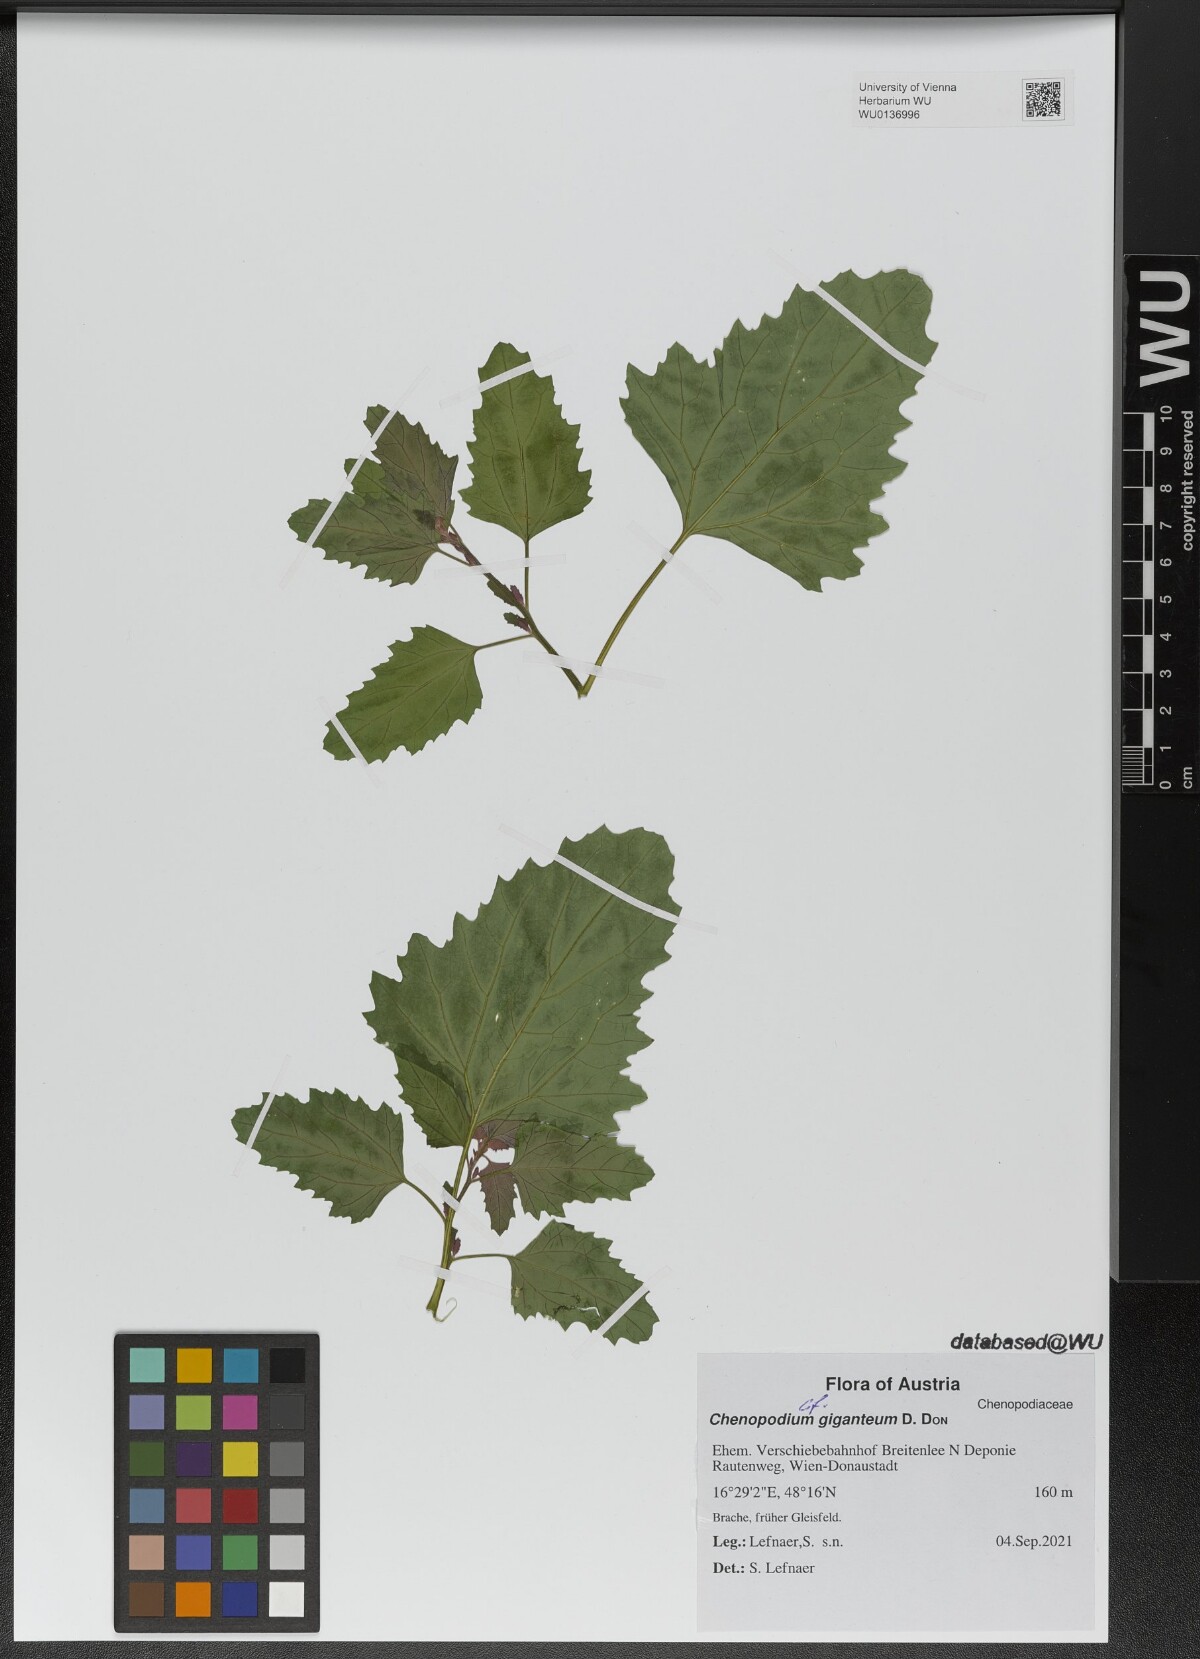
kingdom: Plantae
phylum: Tracheophyta
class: Magnoliopsida
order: Caryophyllales
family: Amaranthaceae
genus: Chenopodium
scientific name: Chenopodium giganteum
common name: Magentaspreen
